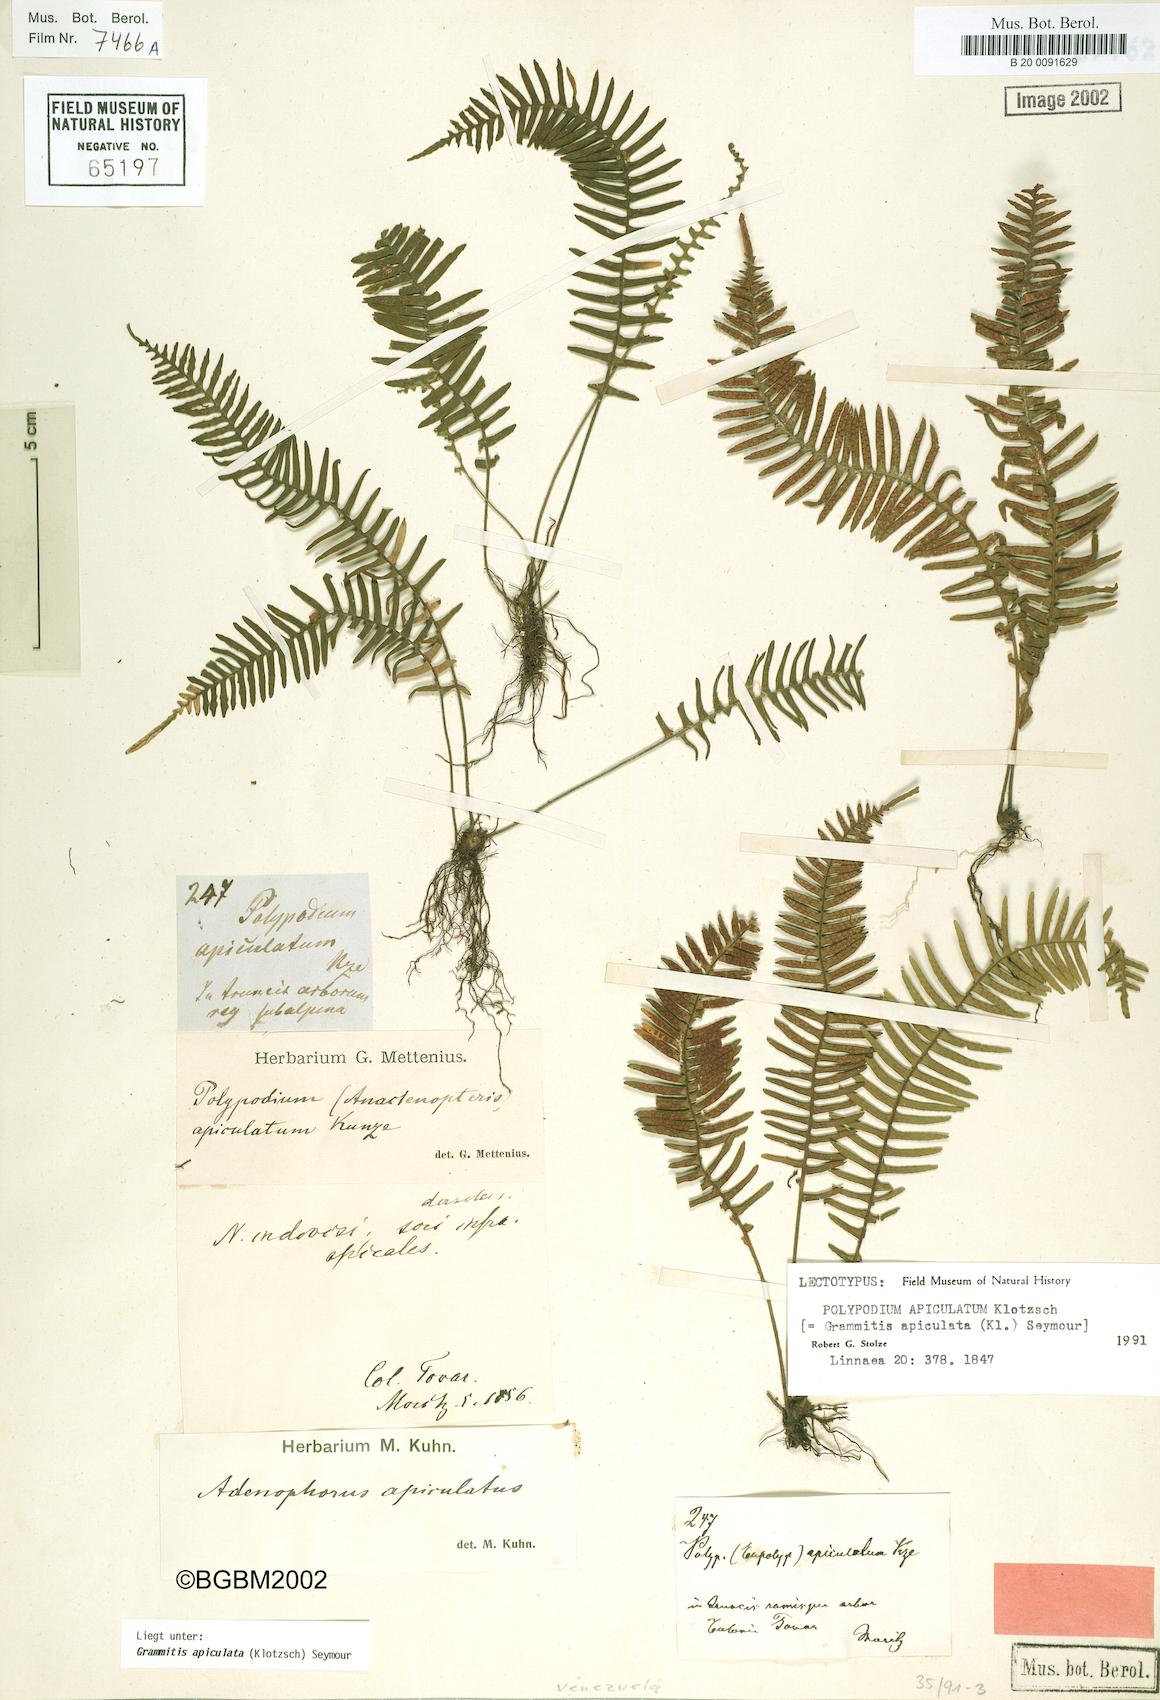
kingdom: Plantae
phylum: Tracheophyta
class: Polypodiopsida
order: Polypodiales
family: Polypodiaceae
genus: Lellingeria
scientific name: Lellingeria apiculata
